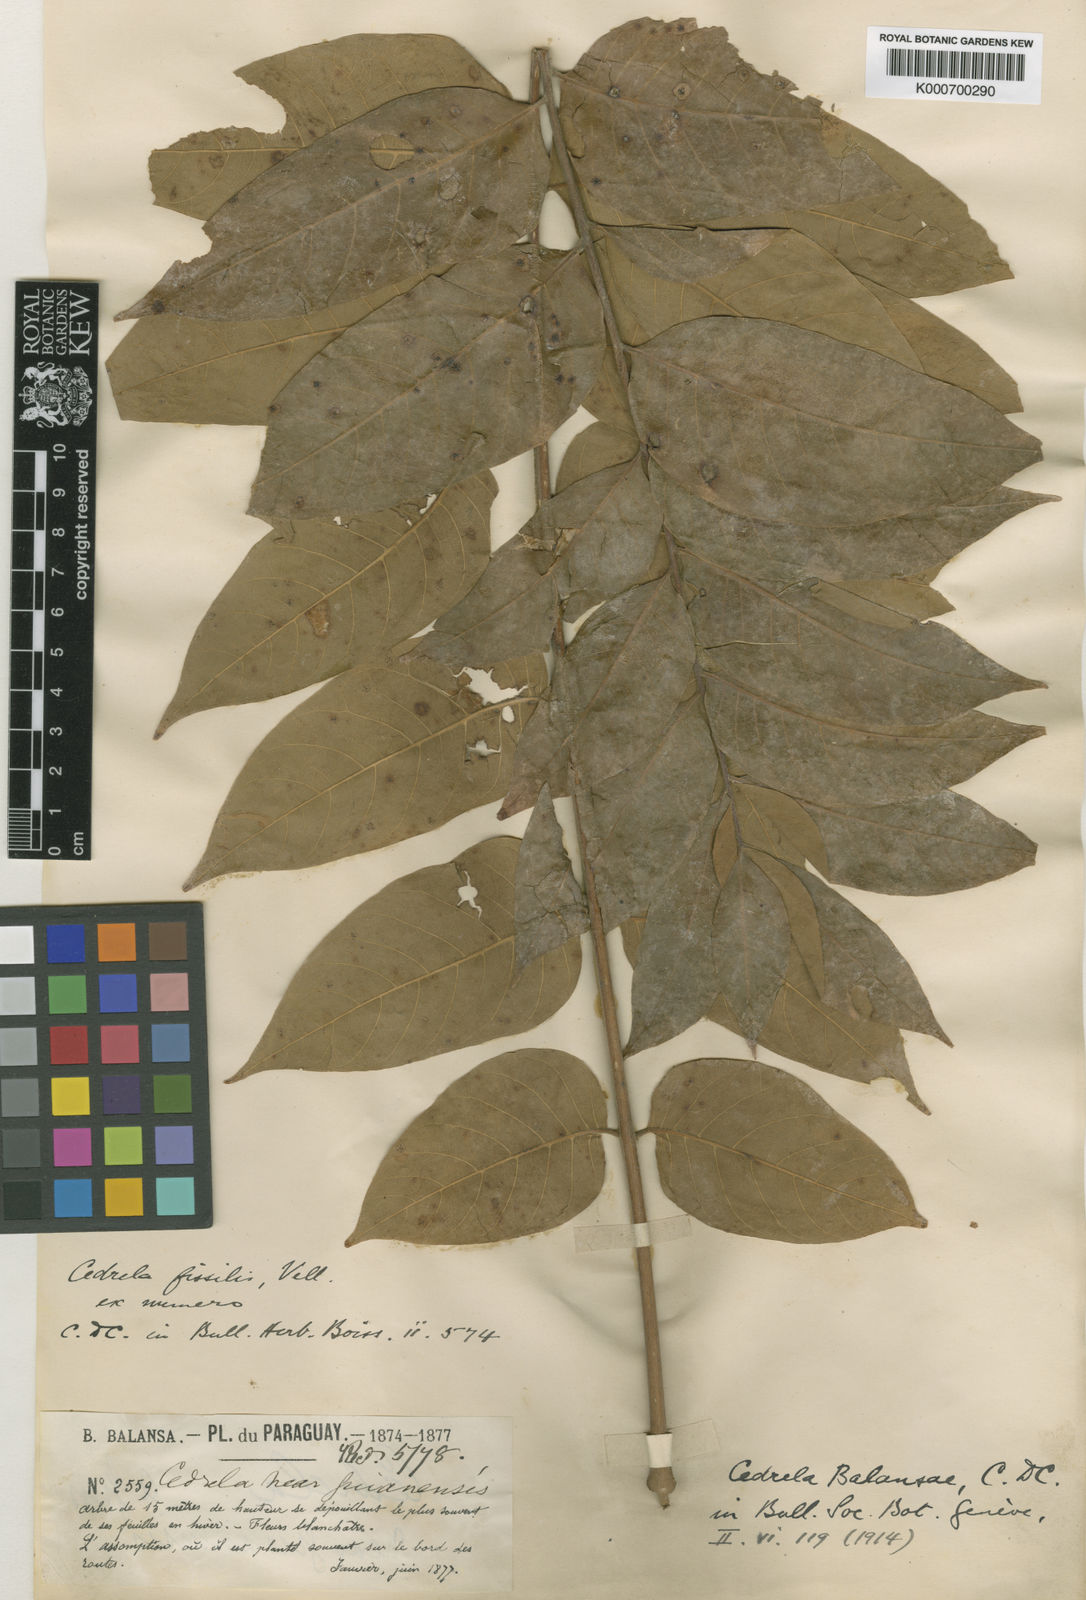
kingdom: Plantae
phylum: Tracheophyta
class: Magnoliopsida
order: Sapindales
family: Meliaceae
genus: Cedrela
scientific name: Cedrela fissilis
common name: Argentine cedar
